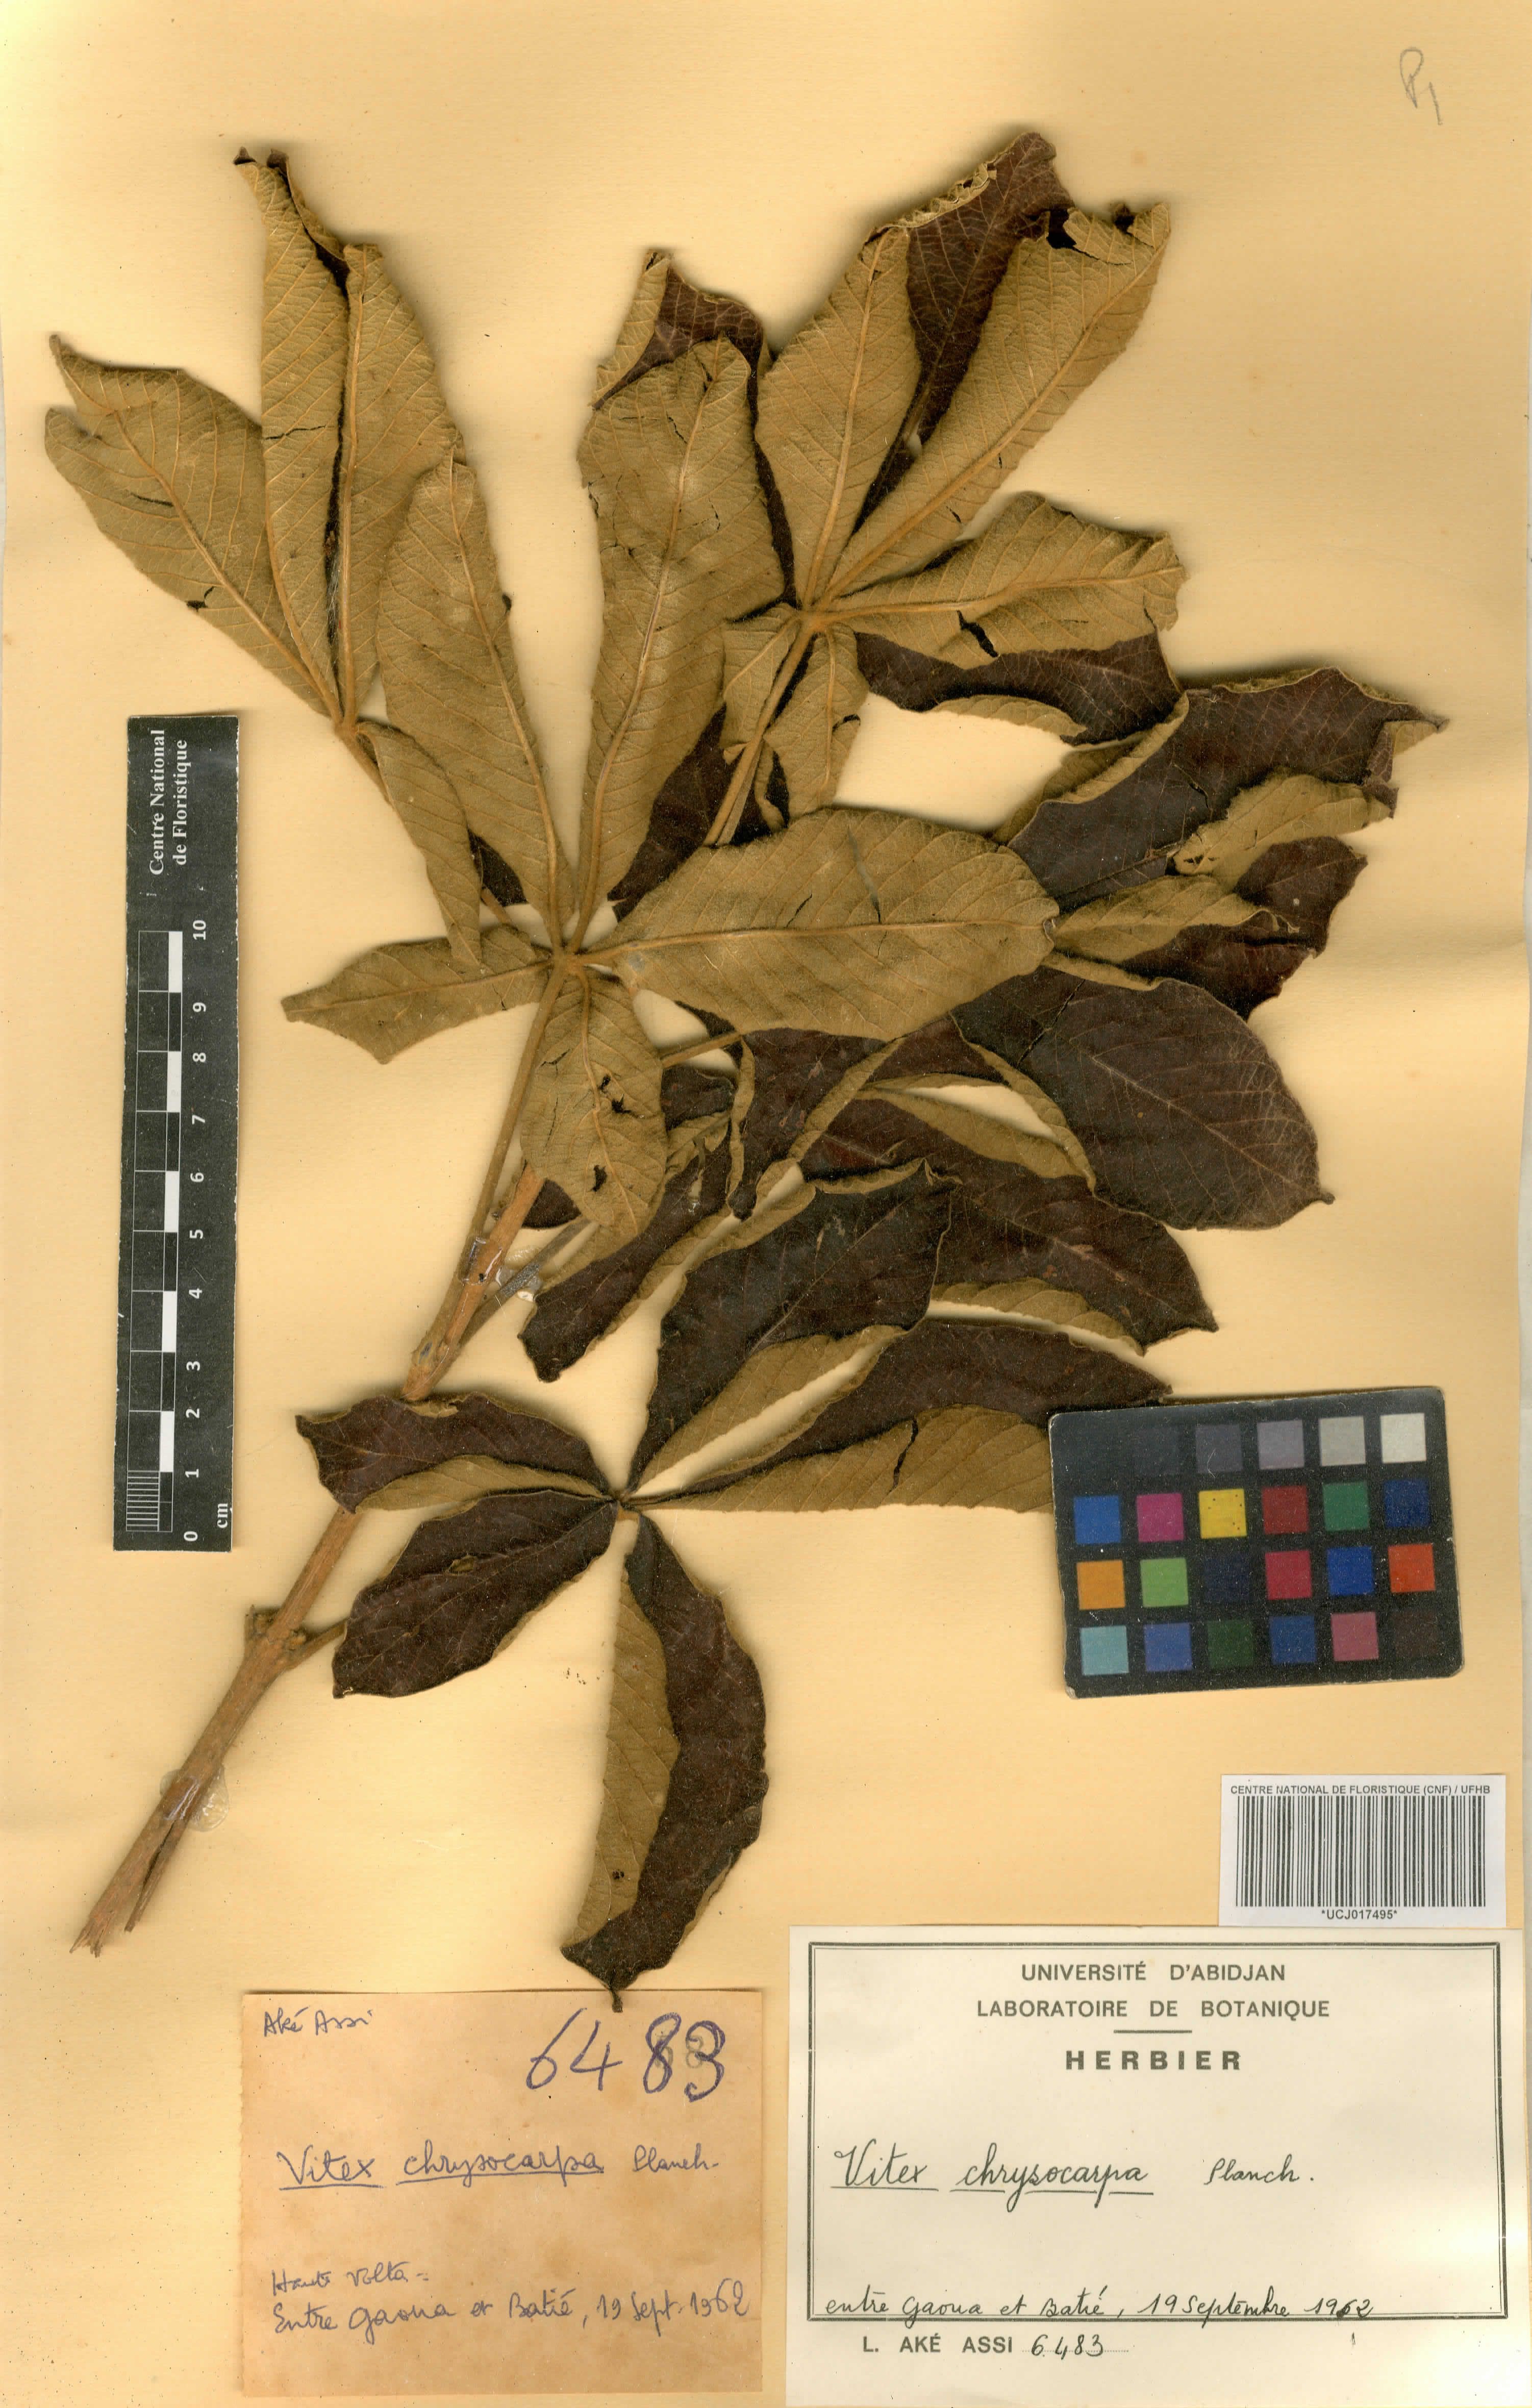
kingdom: Plantae
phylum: Tracheophyta
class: Magnoliopsida
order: Lamiales
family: Lamiaceae
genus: Vitex
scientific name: Vitex chrysocarpa
